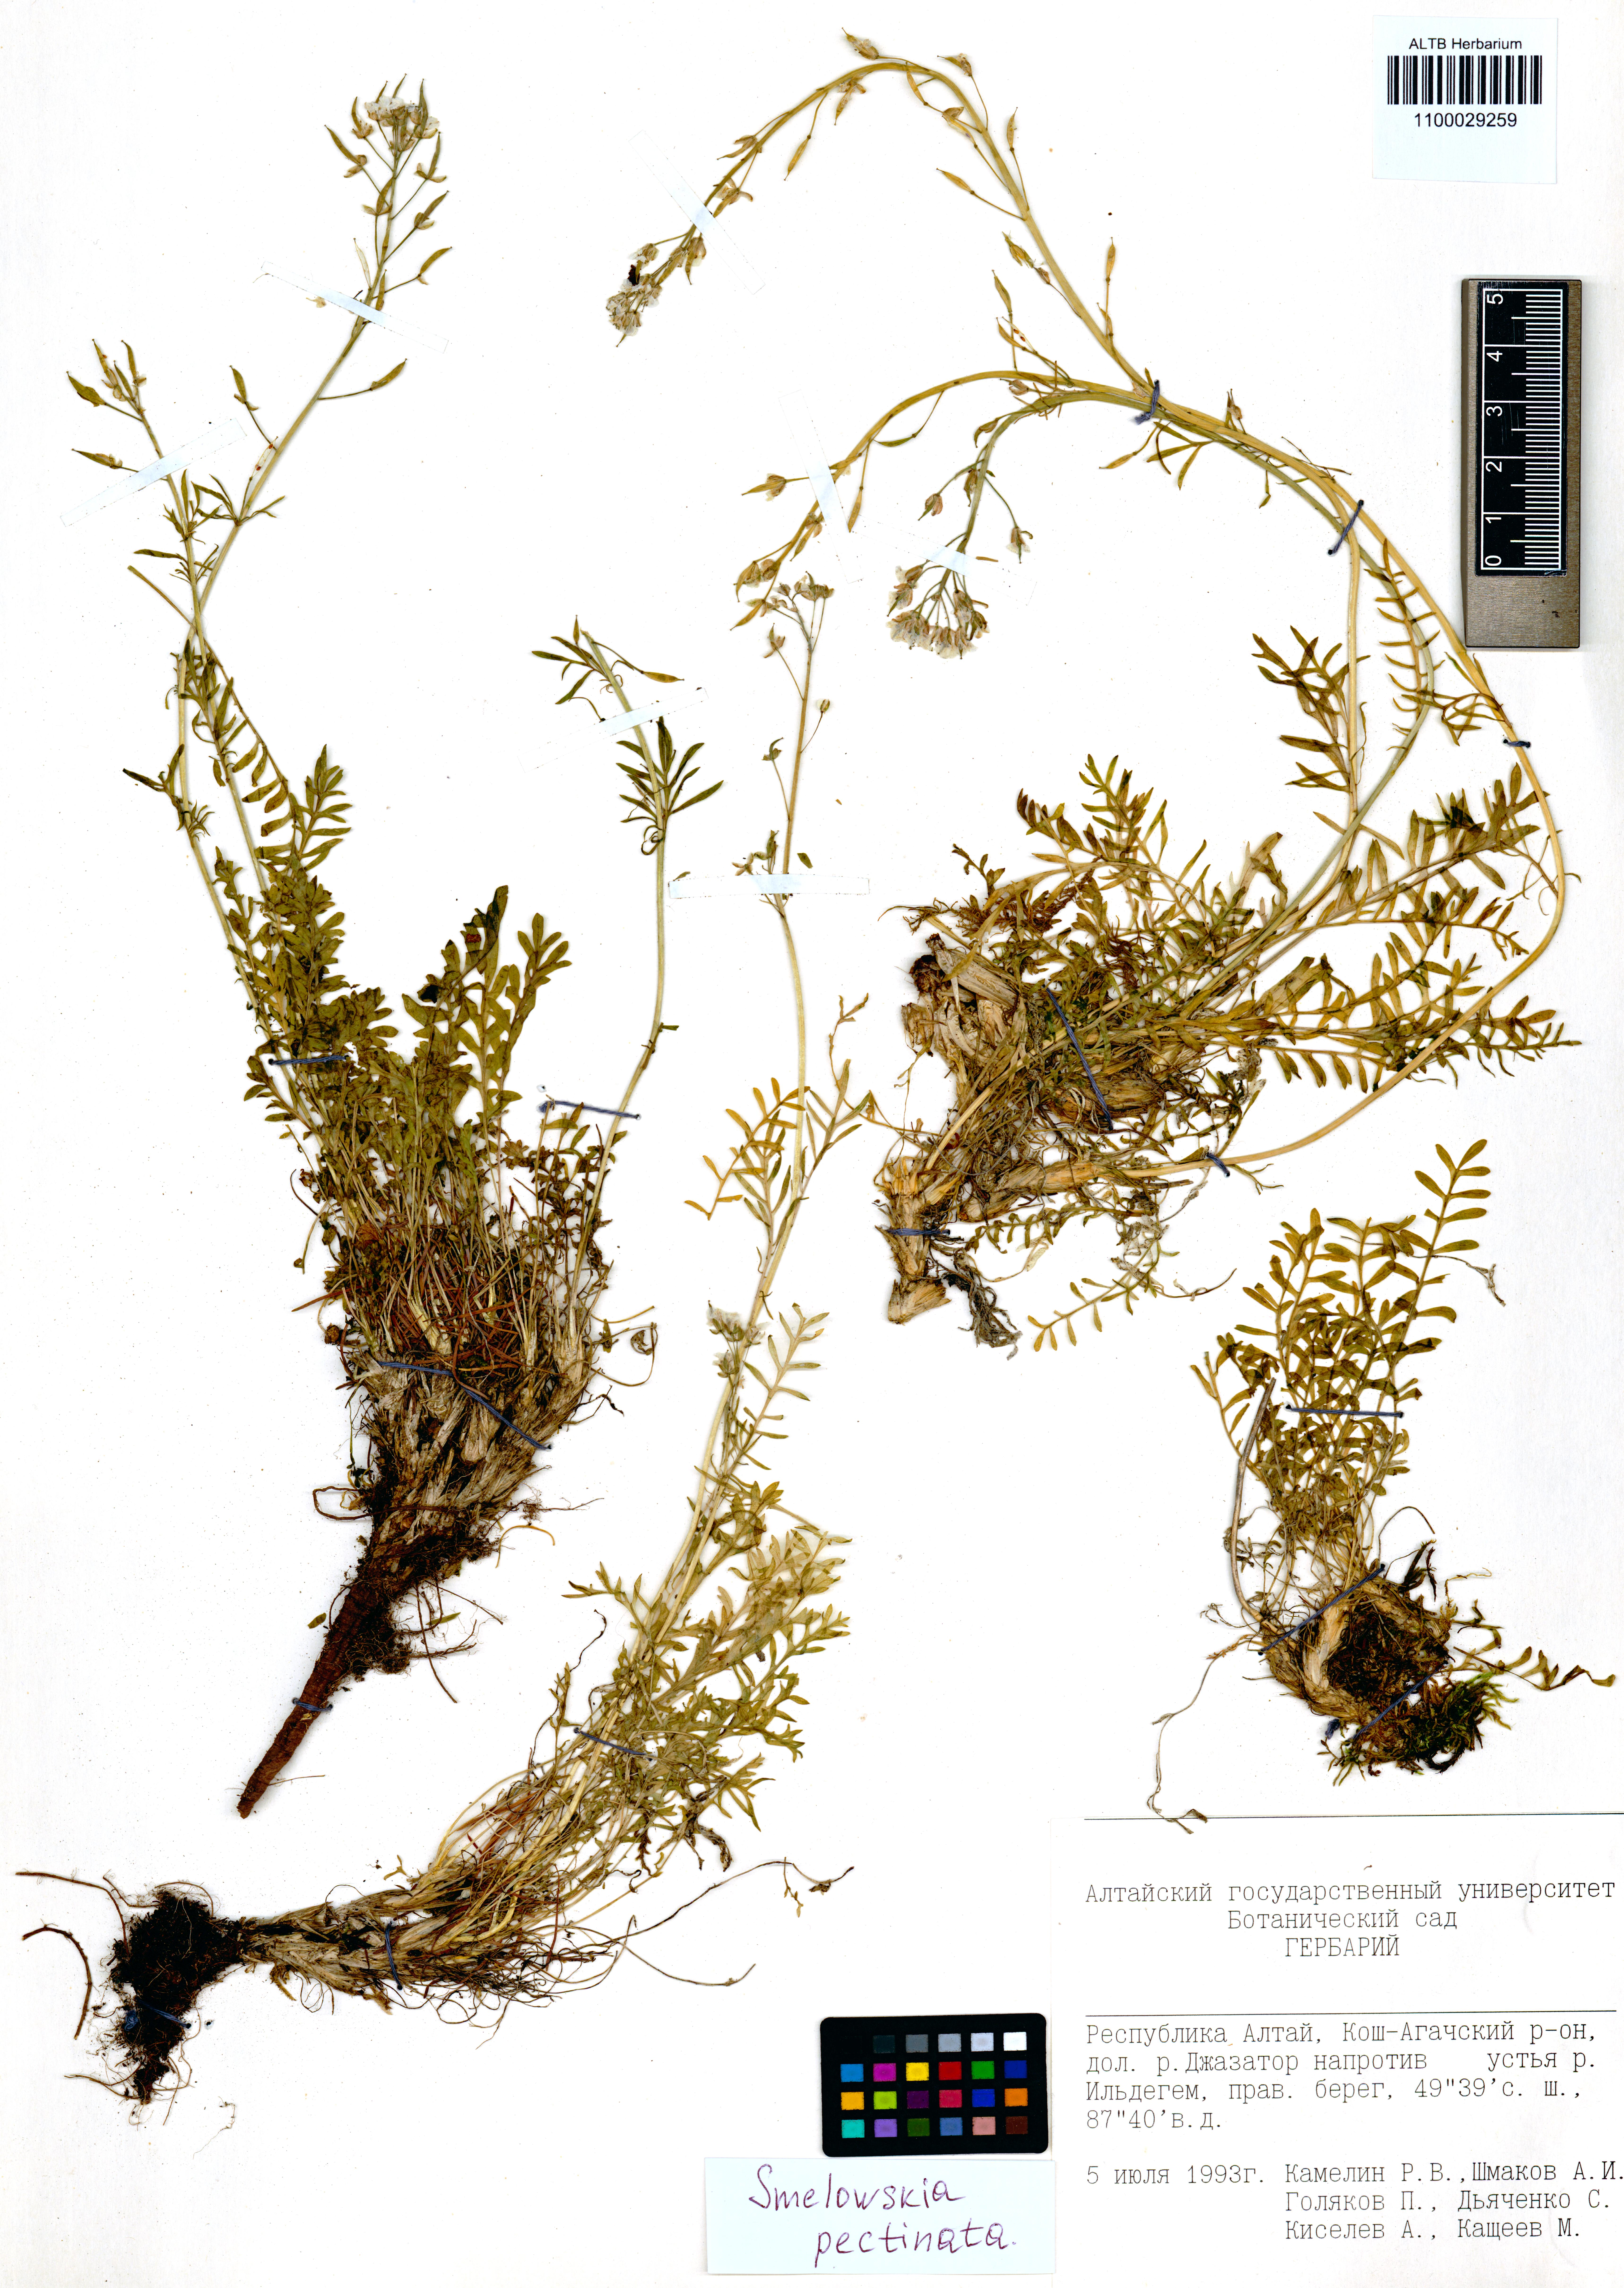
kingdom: Plantae
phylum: Tracheophyta
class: Magnoliopsida
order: Brassicales
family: Brassicaceae
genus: Smelowskia
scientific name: Smelowskia calycina
